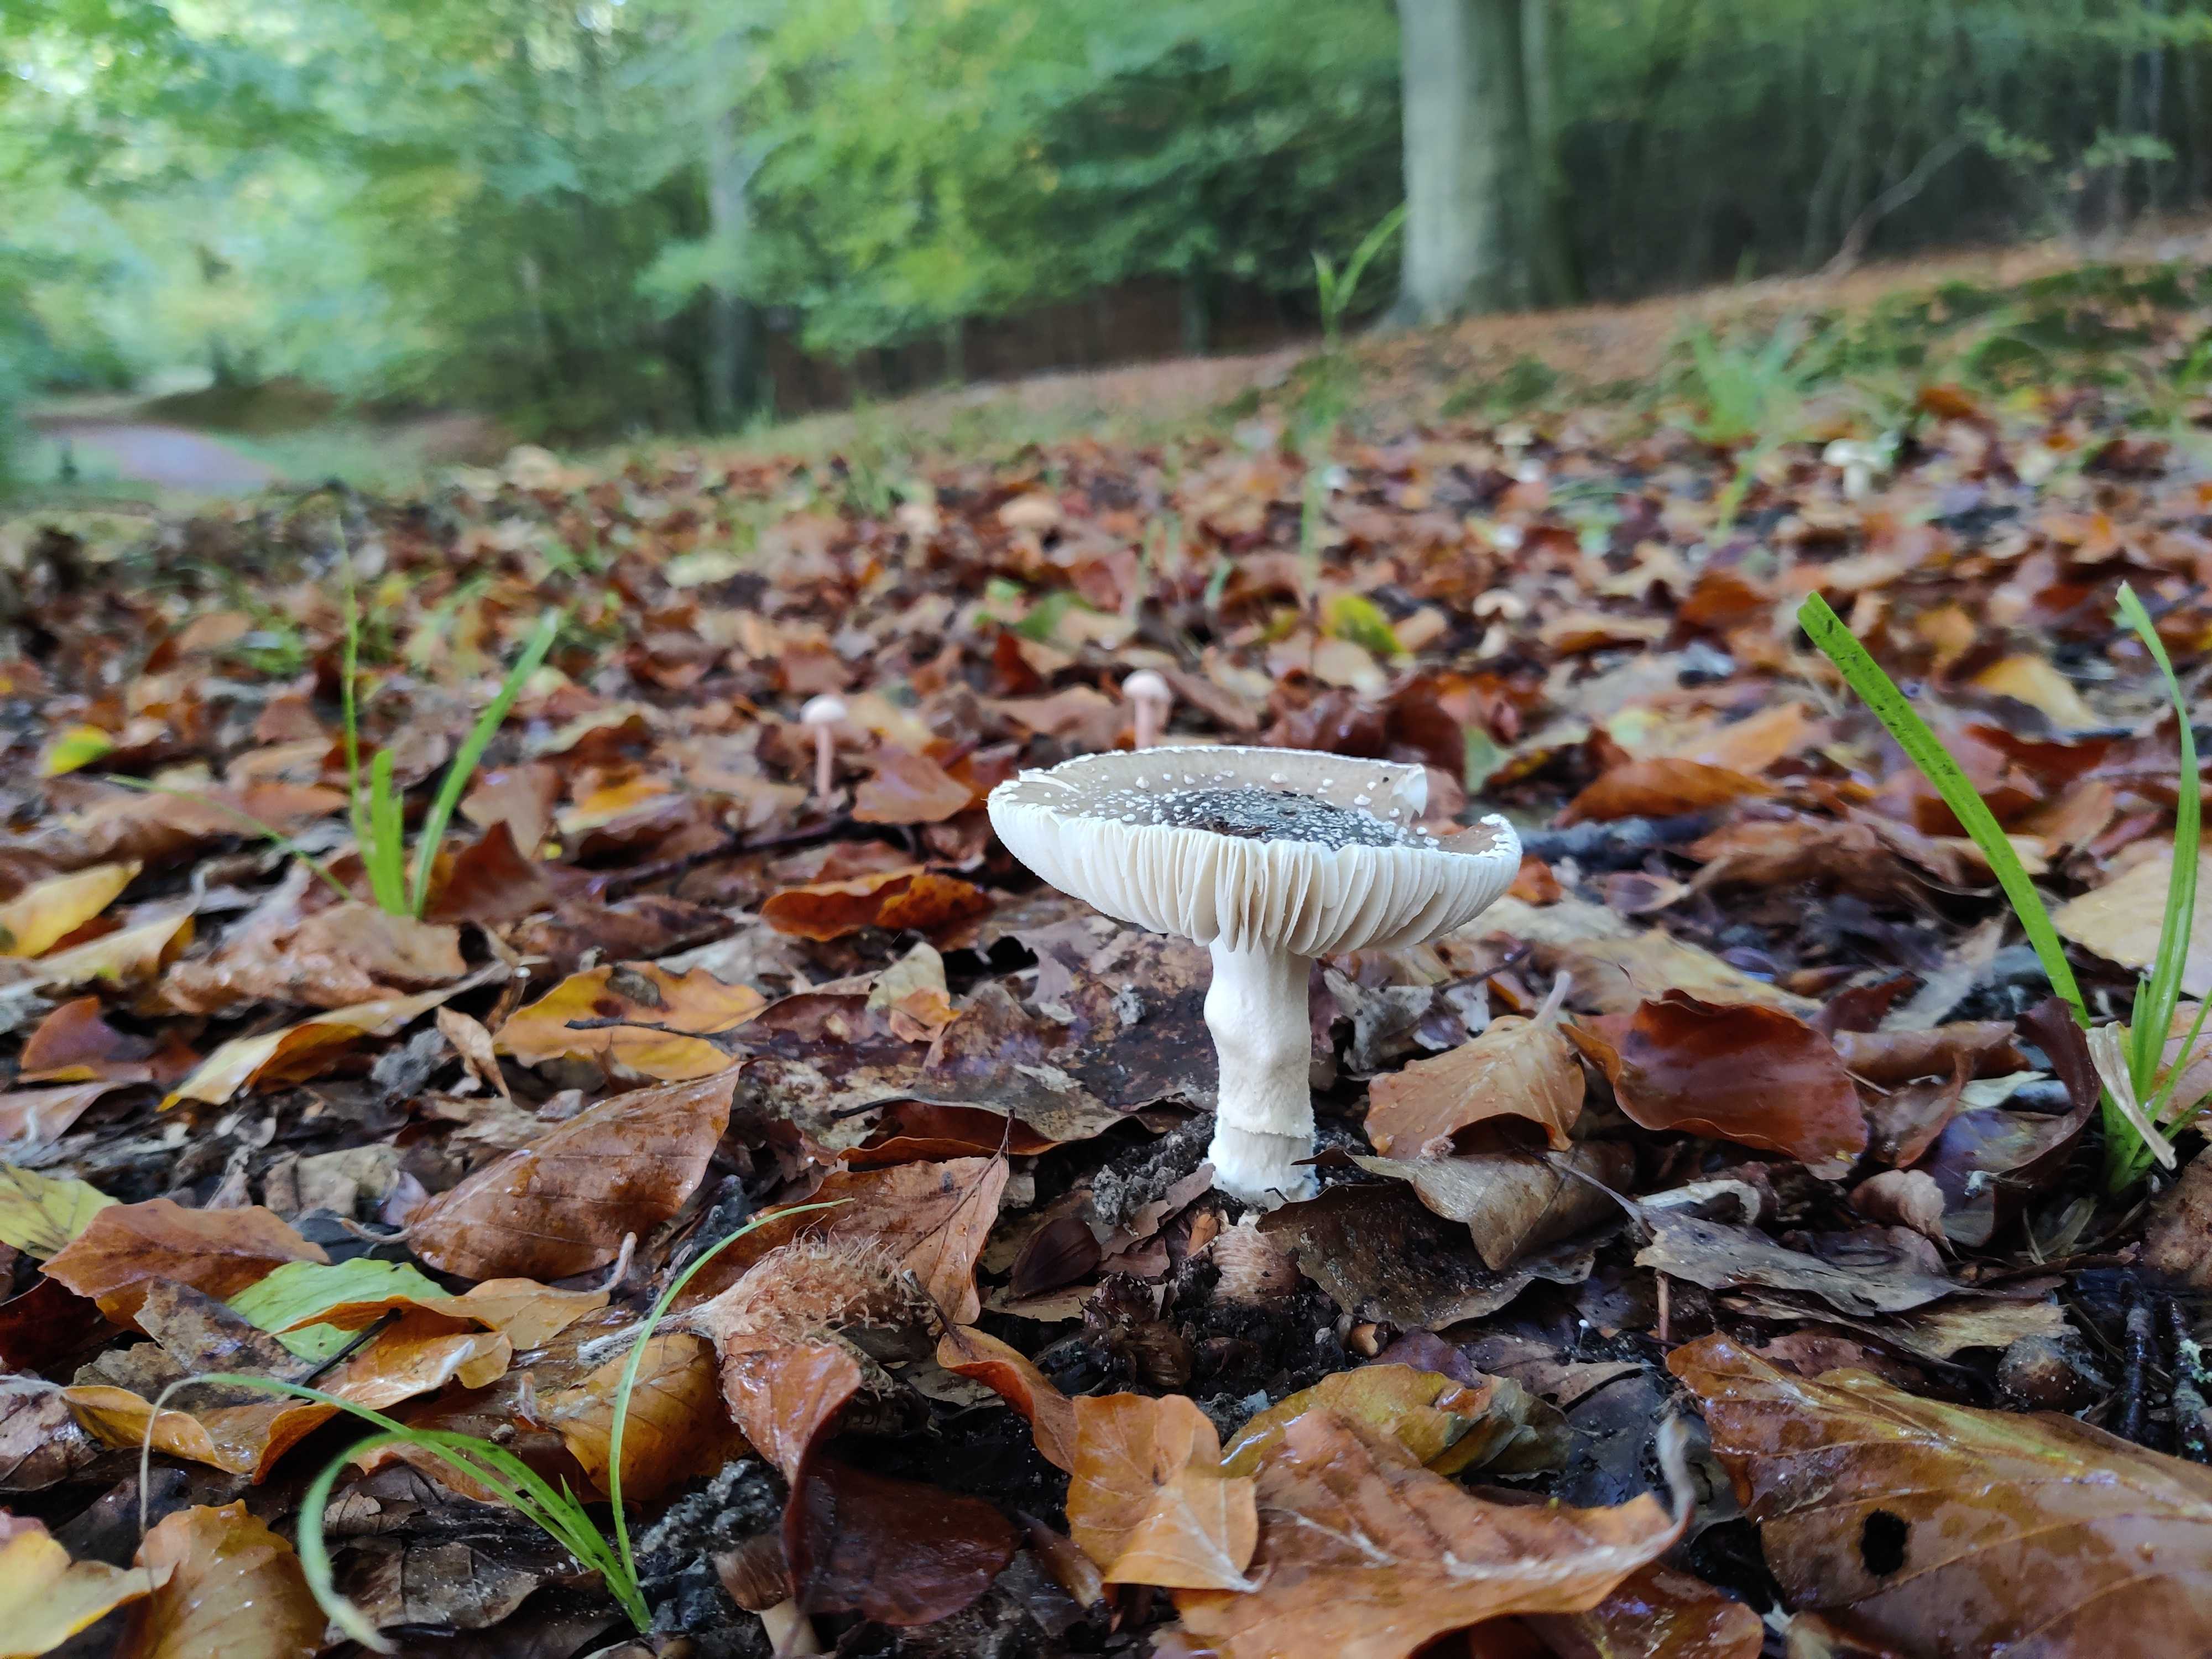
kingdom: Fungi
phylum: Basidiomycota
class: Agaricomycetes
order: Agaricales
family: Amanitaceae
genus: Amanita
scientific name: Amanita
